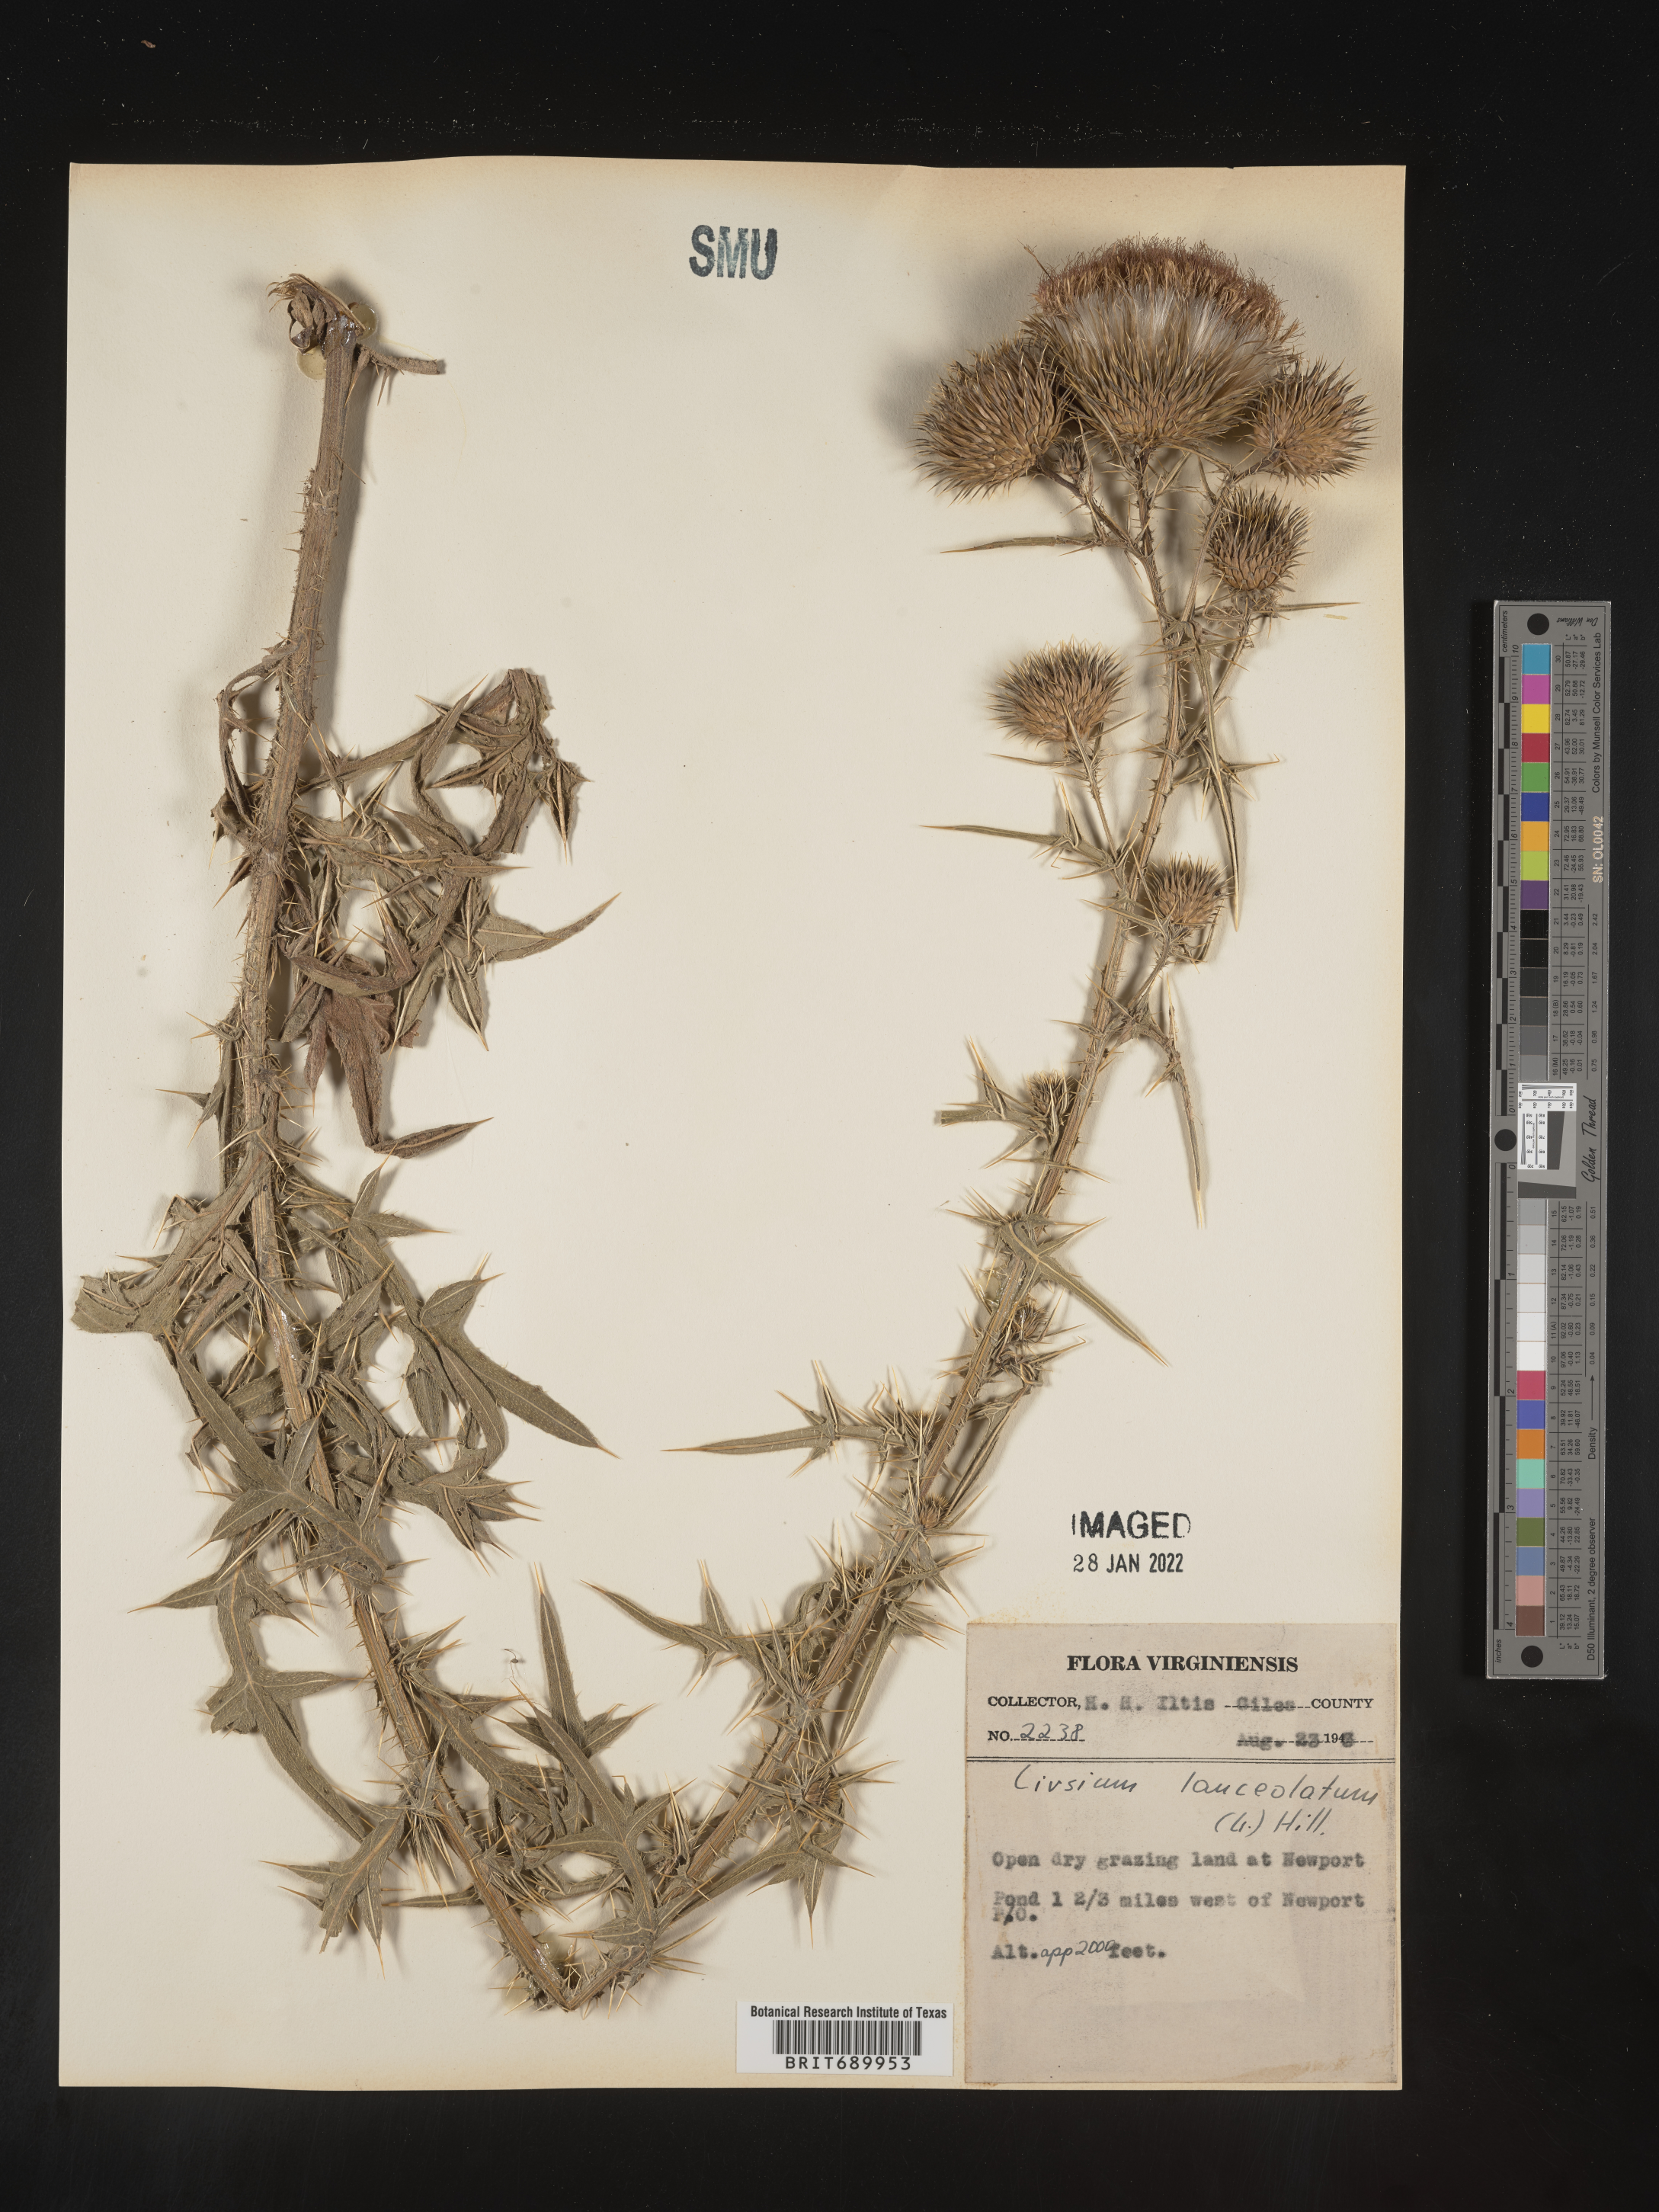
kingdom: Plantae
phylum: Tracheophyta
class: Magnoliopsida
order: Asterales
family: Asteraceae
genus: Cirsium
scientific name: Cirsium vulgare
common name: Bull thistle
